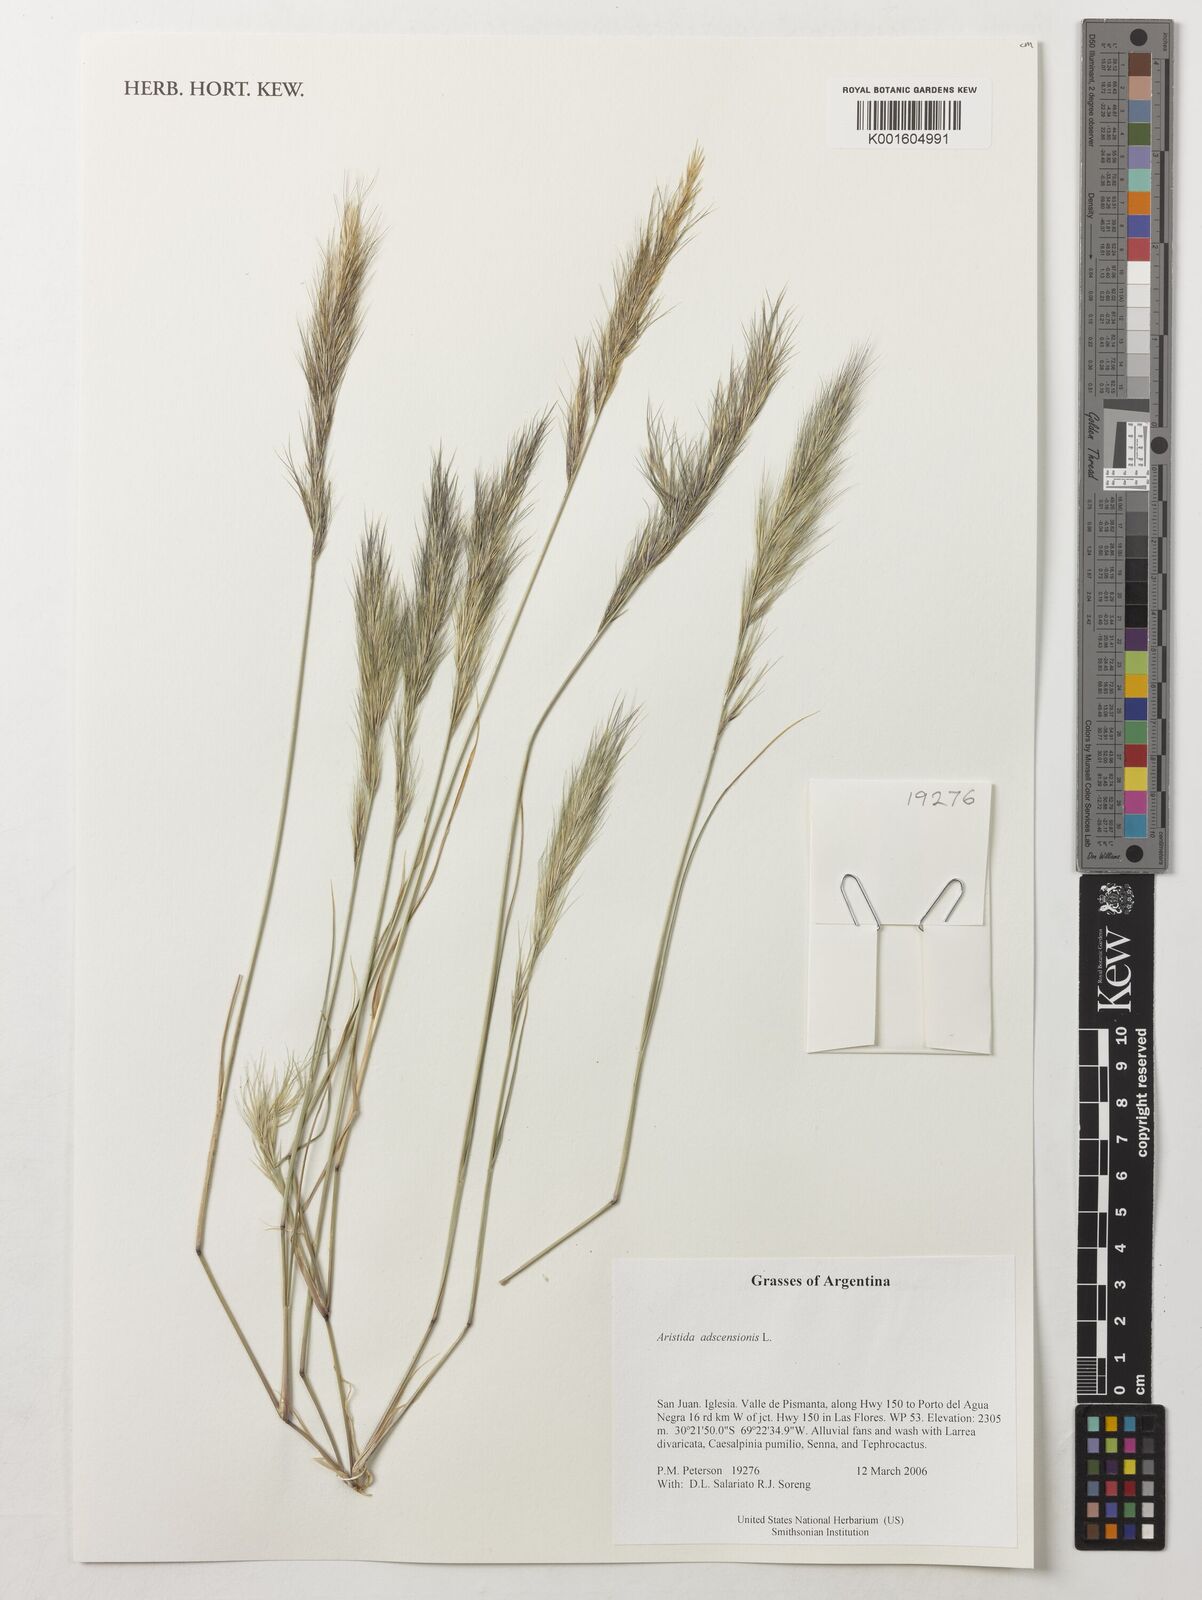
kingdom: Plantae
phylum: Tracheophyta
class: Liliopsida
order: Poales
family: Poaceae
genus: Aristida
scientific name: Aristida adscensionis
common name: Sixweeks threeawn
